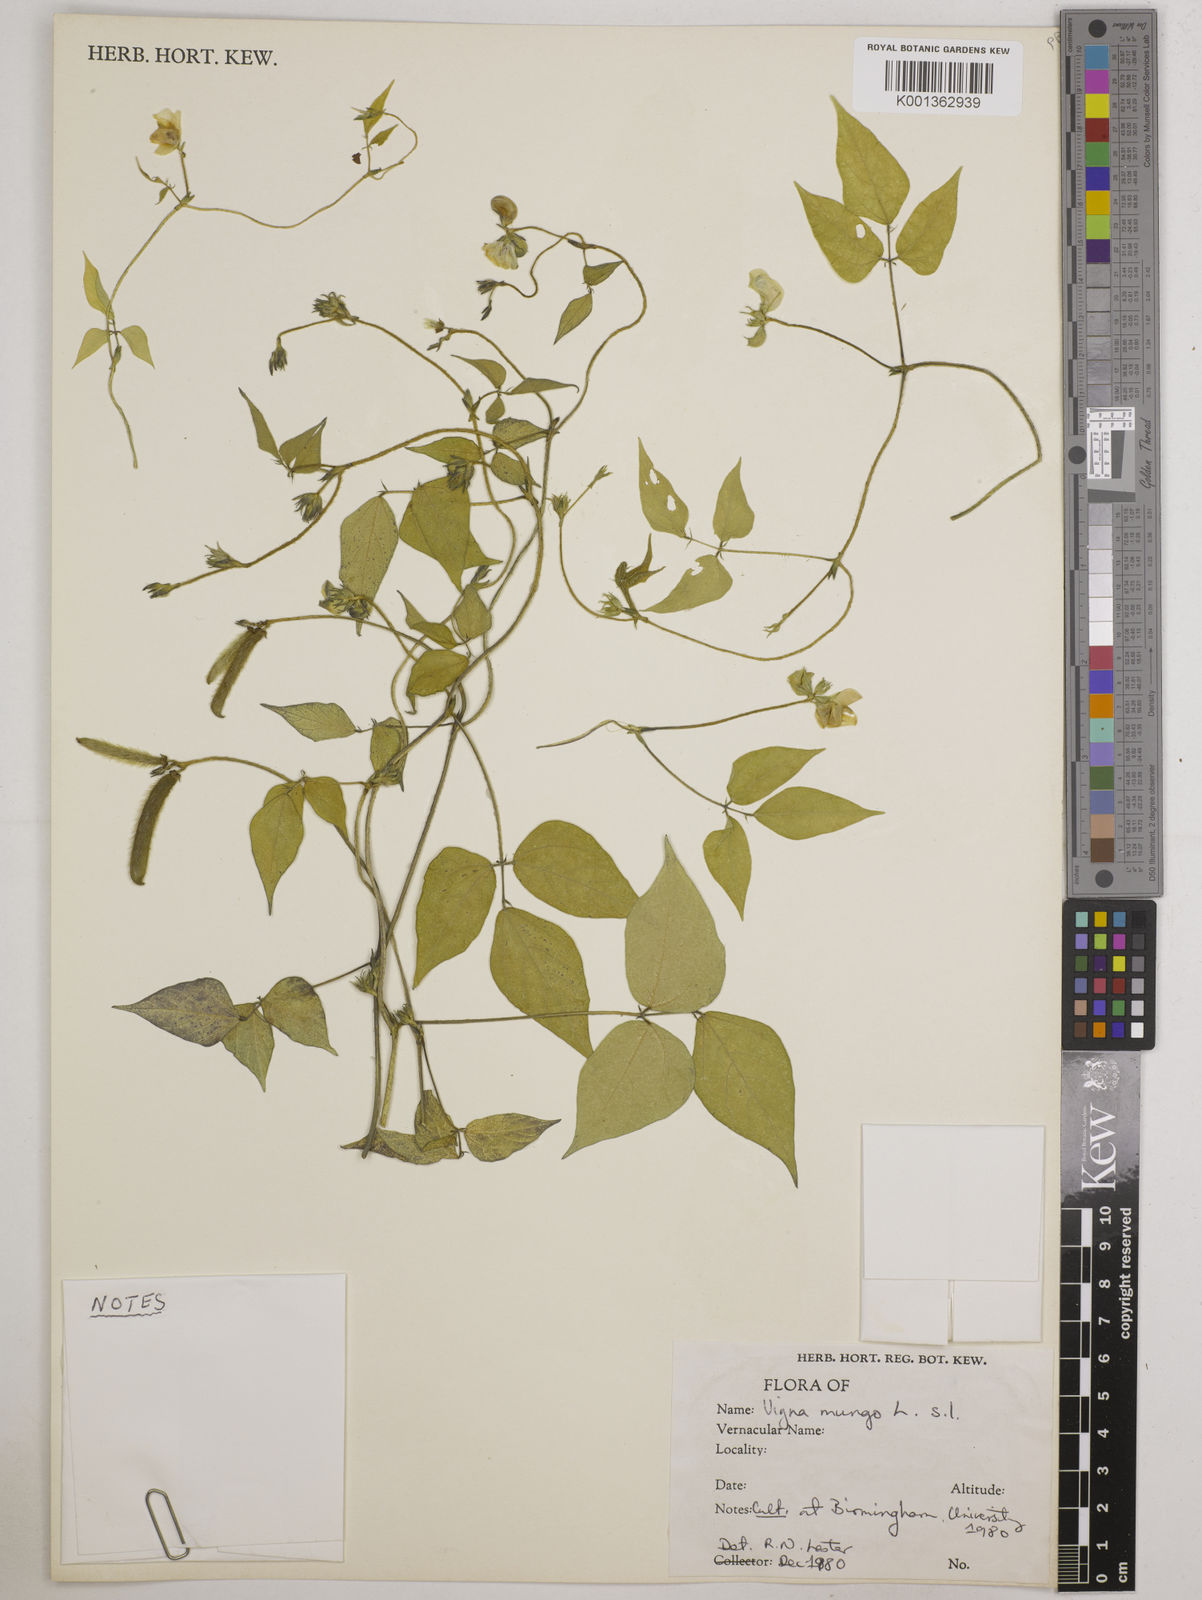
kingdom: Plantae
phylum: Tracheophyta
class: Magnoliopsida
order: Fabales
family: Fabaceae
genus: Vigna
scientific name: Vigna mungo
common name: Black gram
